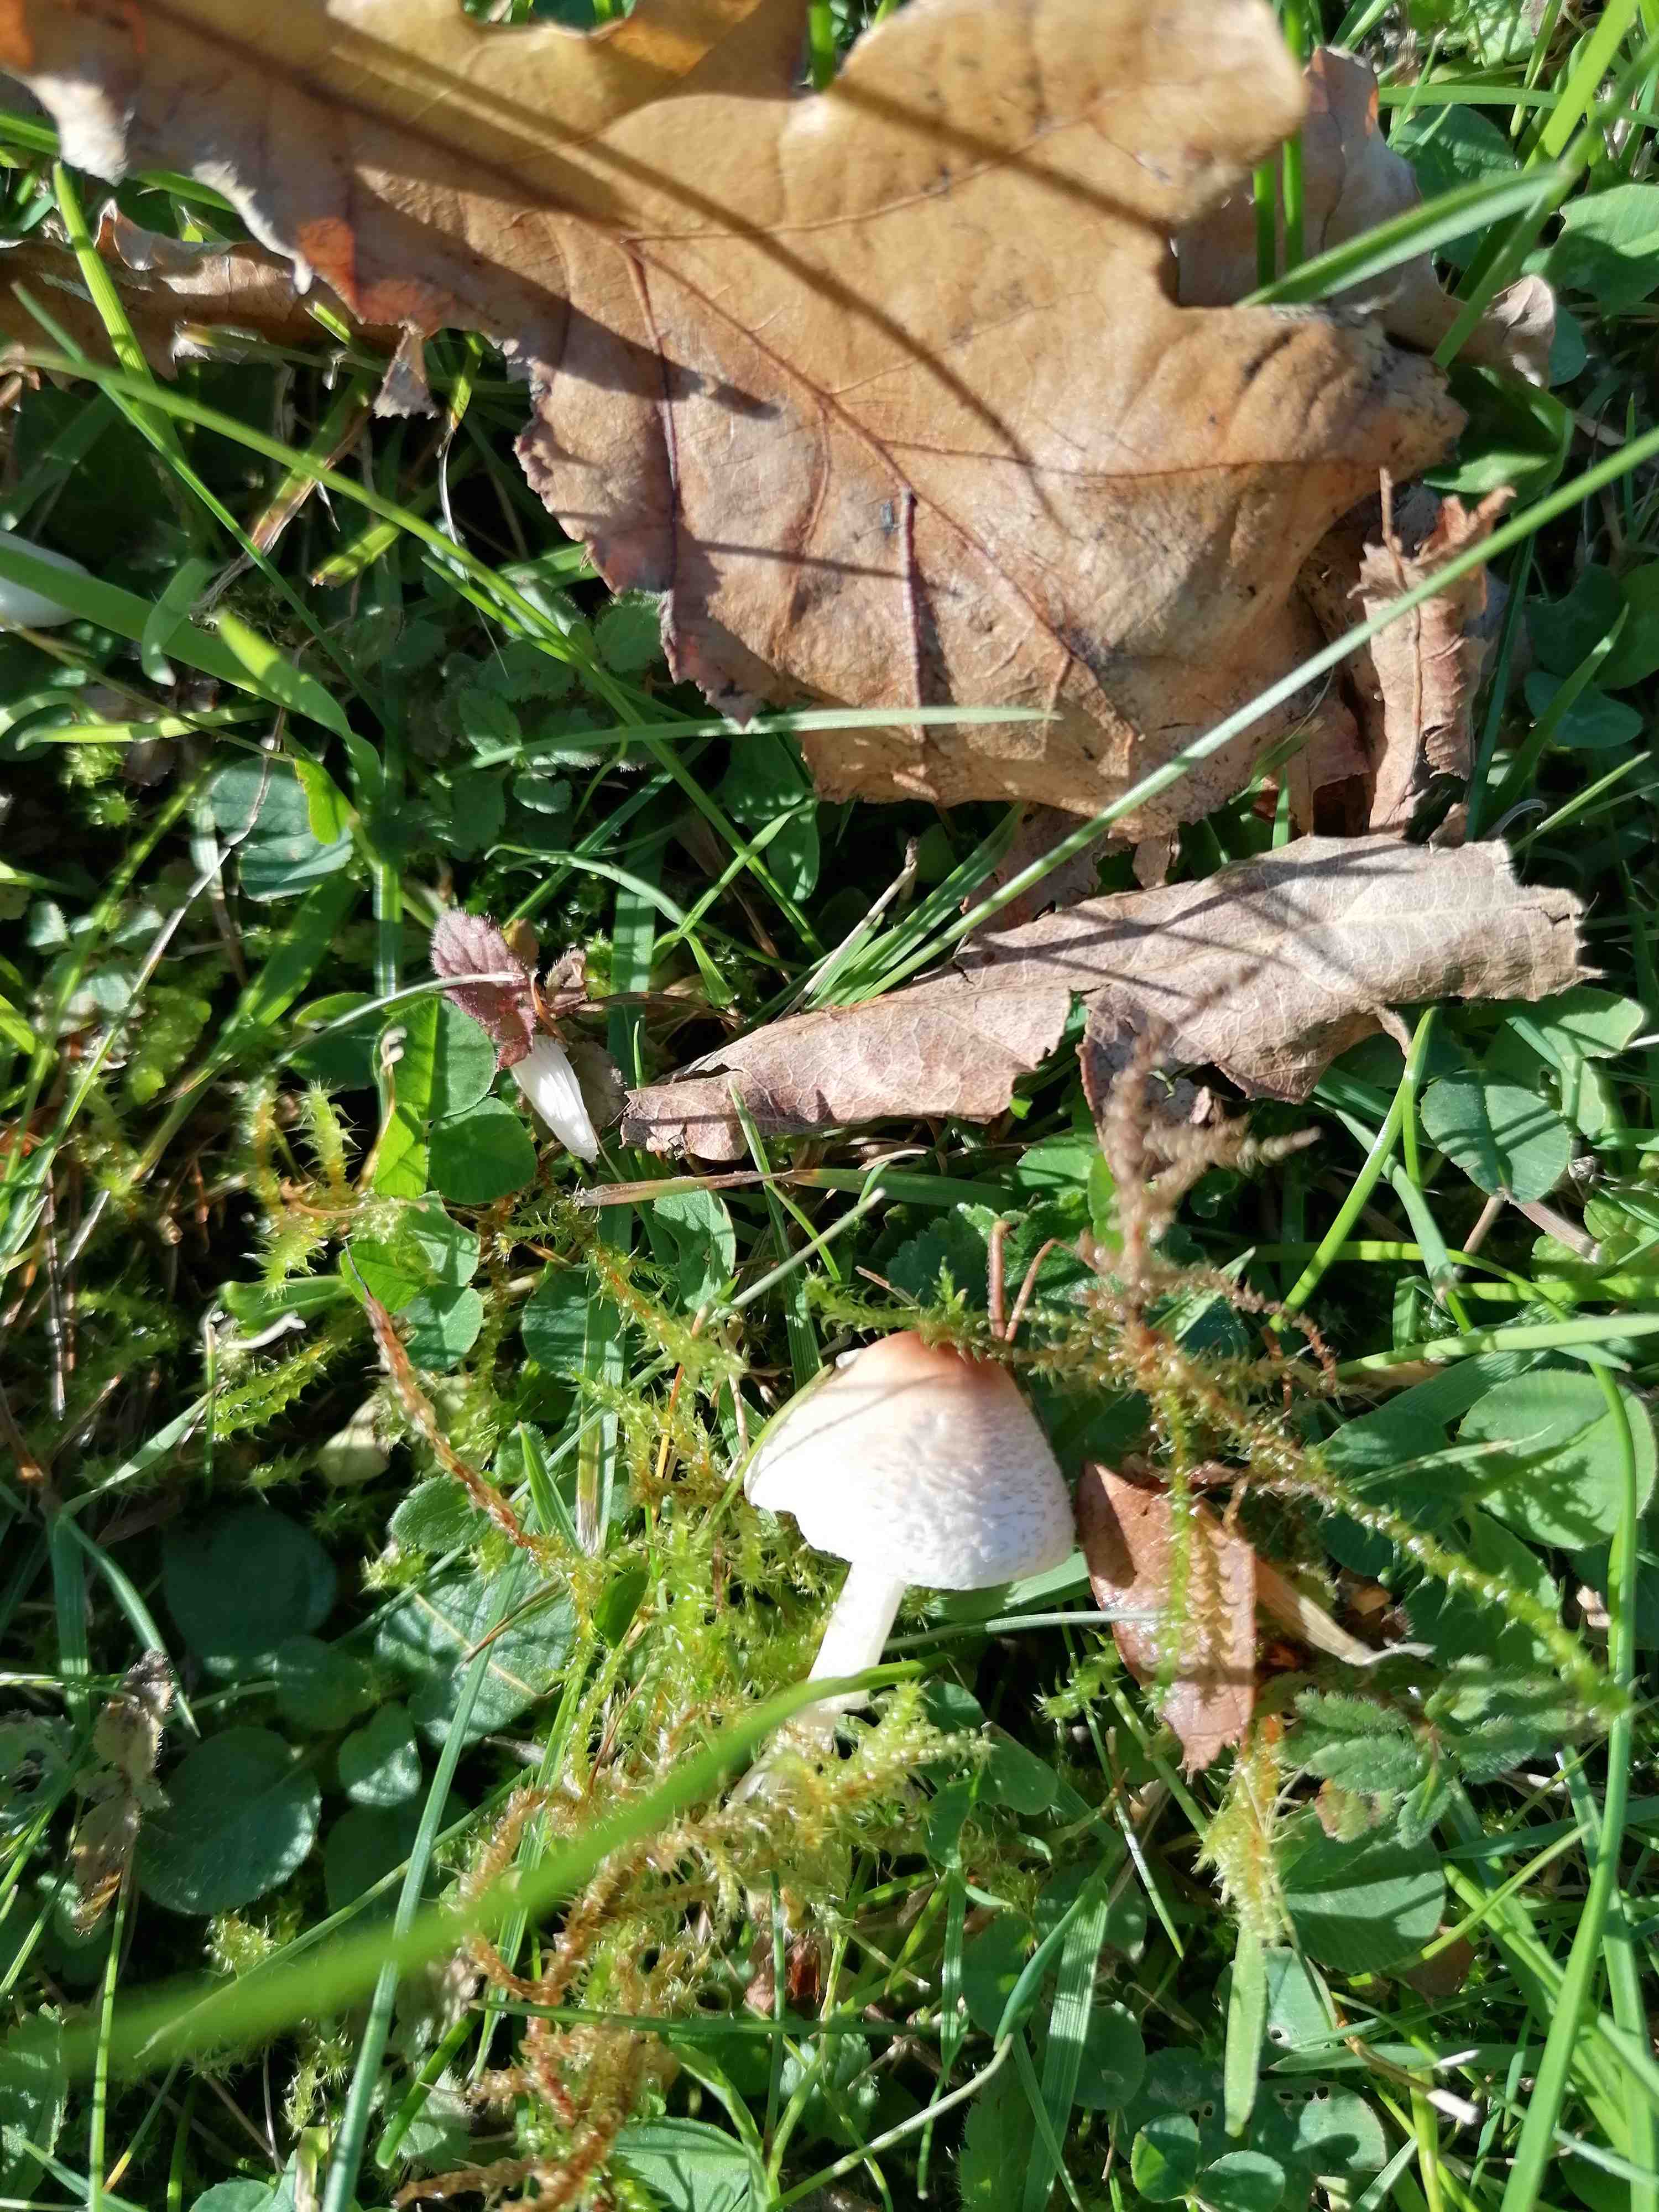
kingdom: Fungi
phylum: Basidiomycota
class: Agaricomycetes
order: Agaricales
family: Agaricaceae
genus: Lepiota
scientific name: Lepiota cristata
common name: stinkende parasolhat
